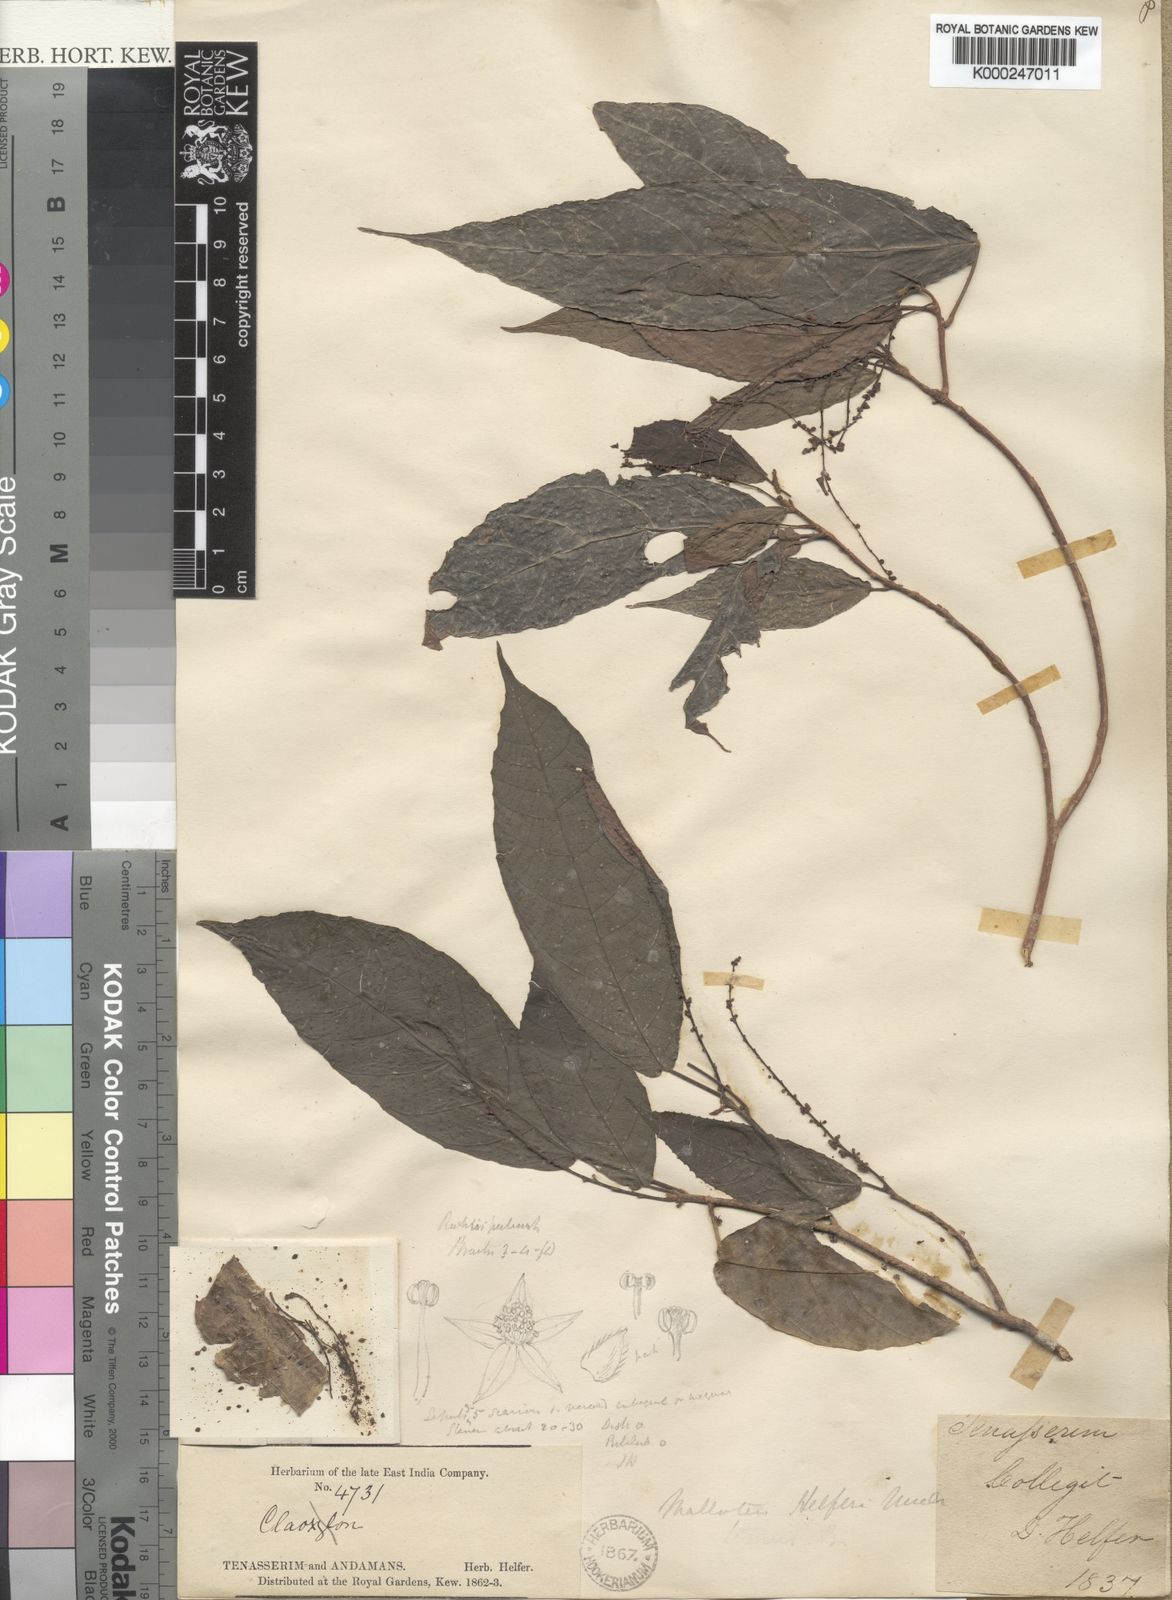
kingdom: Plantae
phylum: Tracheophyta
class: Magnoliopsida
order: Malpighiales
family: Euphorbiaceae
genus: Mallotus
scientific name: Mallotus peltatus
